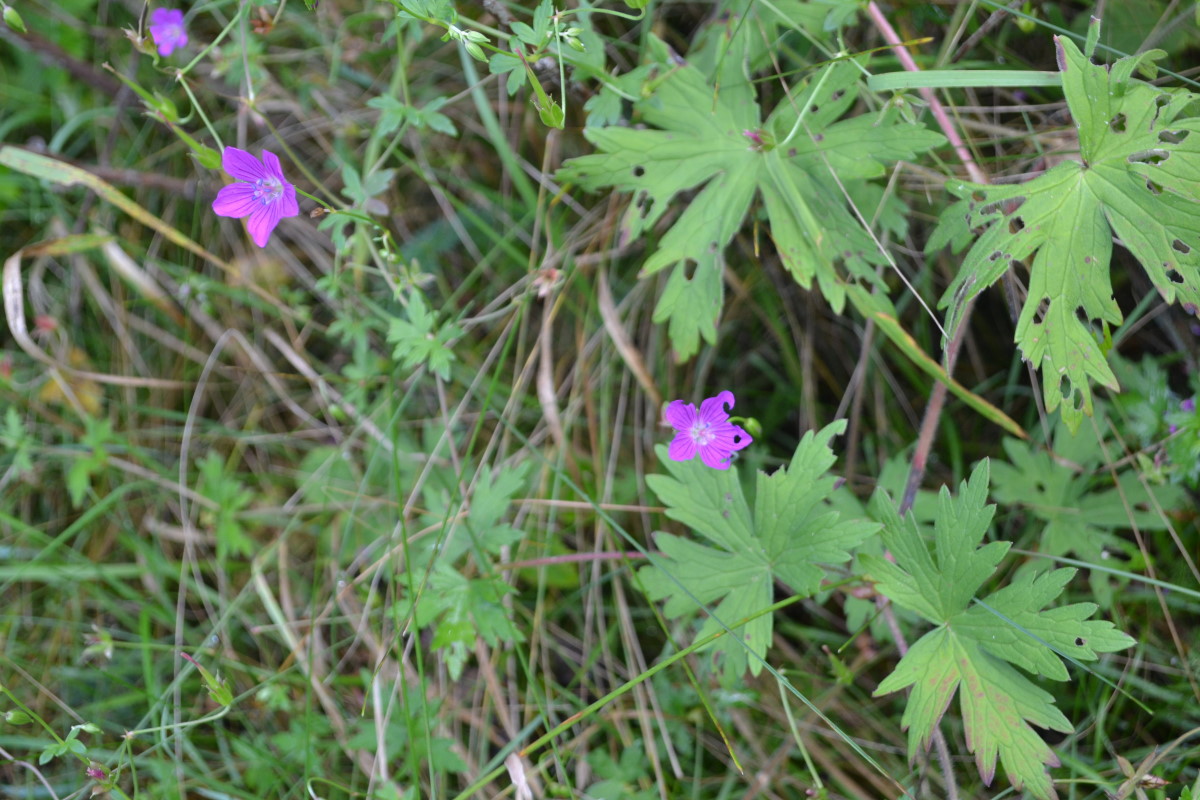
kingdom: Plantae
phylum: Tracheophyta
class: Magnoliopsida
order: Geraniales
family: Geraniaceae
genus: Geranium
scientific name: Geranium palustre
